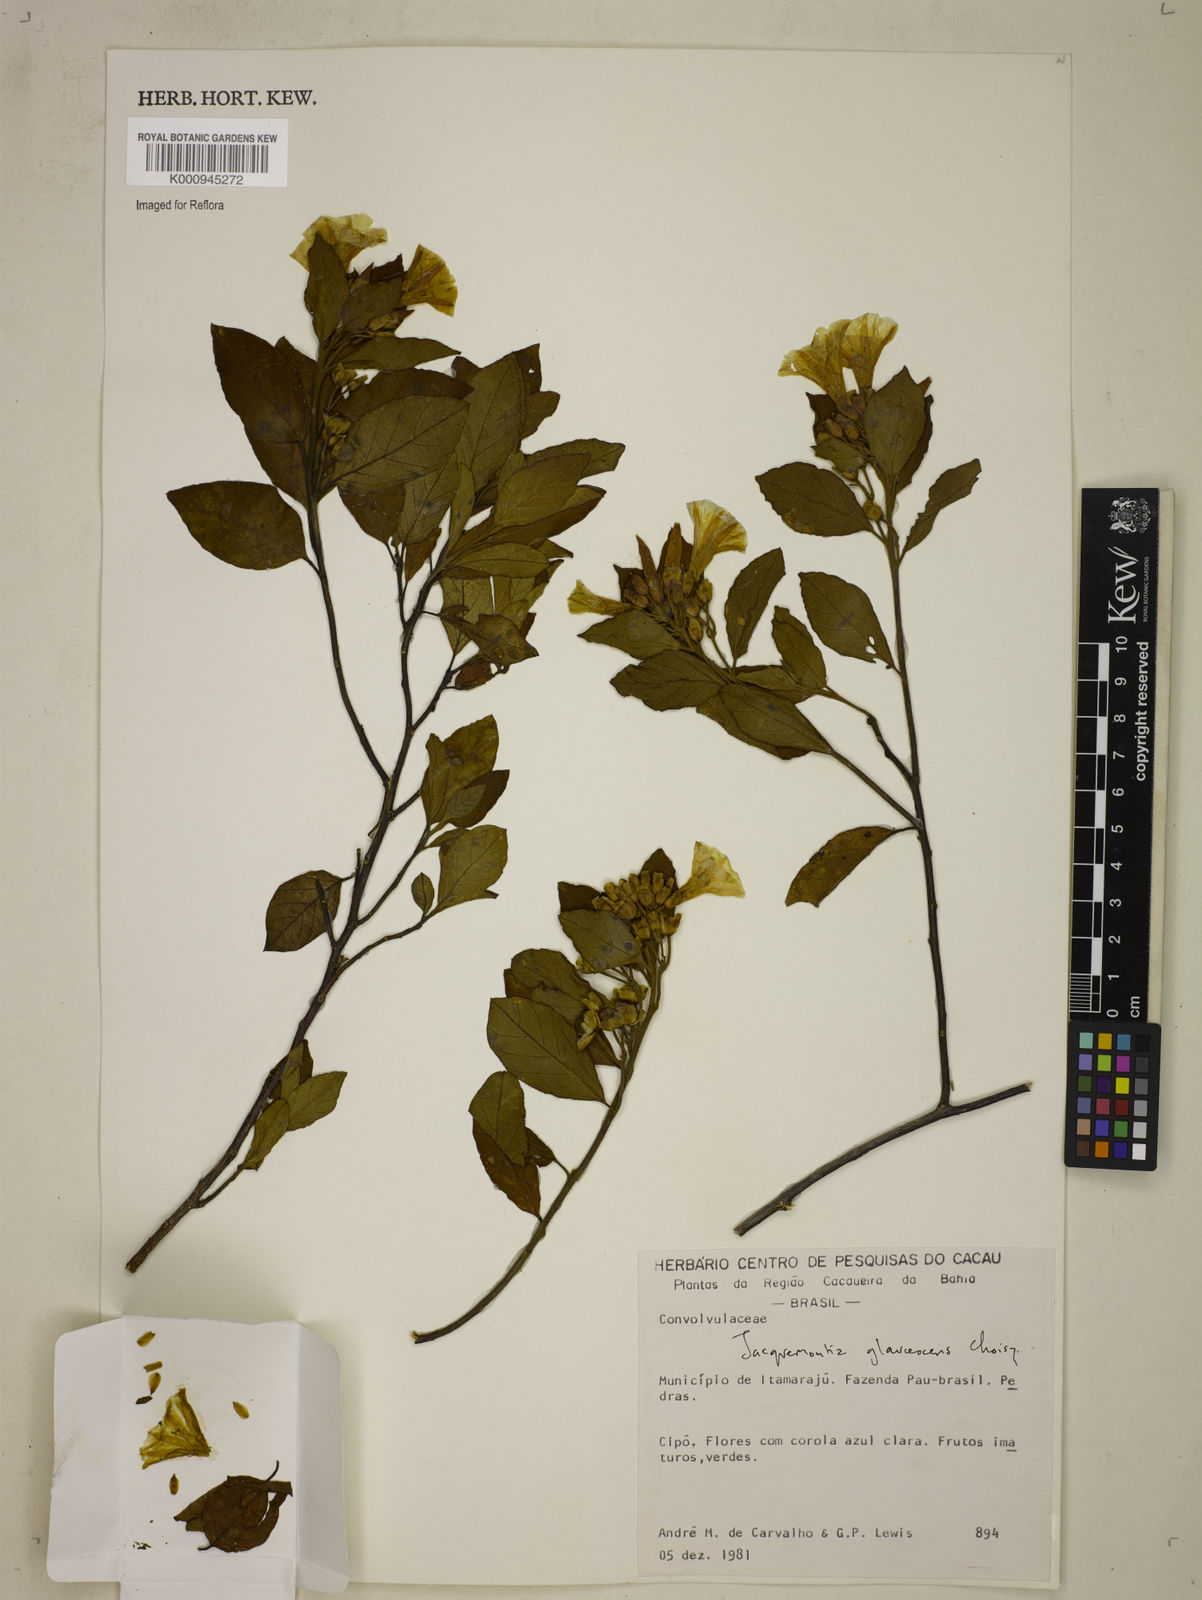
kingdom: Plantae
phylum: Tracheophyta
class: Magnoliopsida
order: Solanales
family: Convolvulaceae
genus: Jacquemontia
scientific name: Jacquemontia glaucescens
